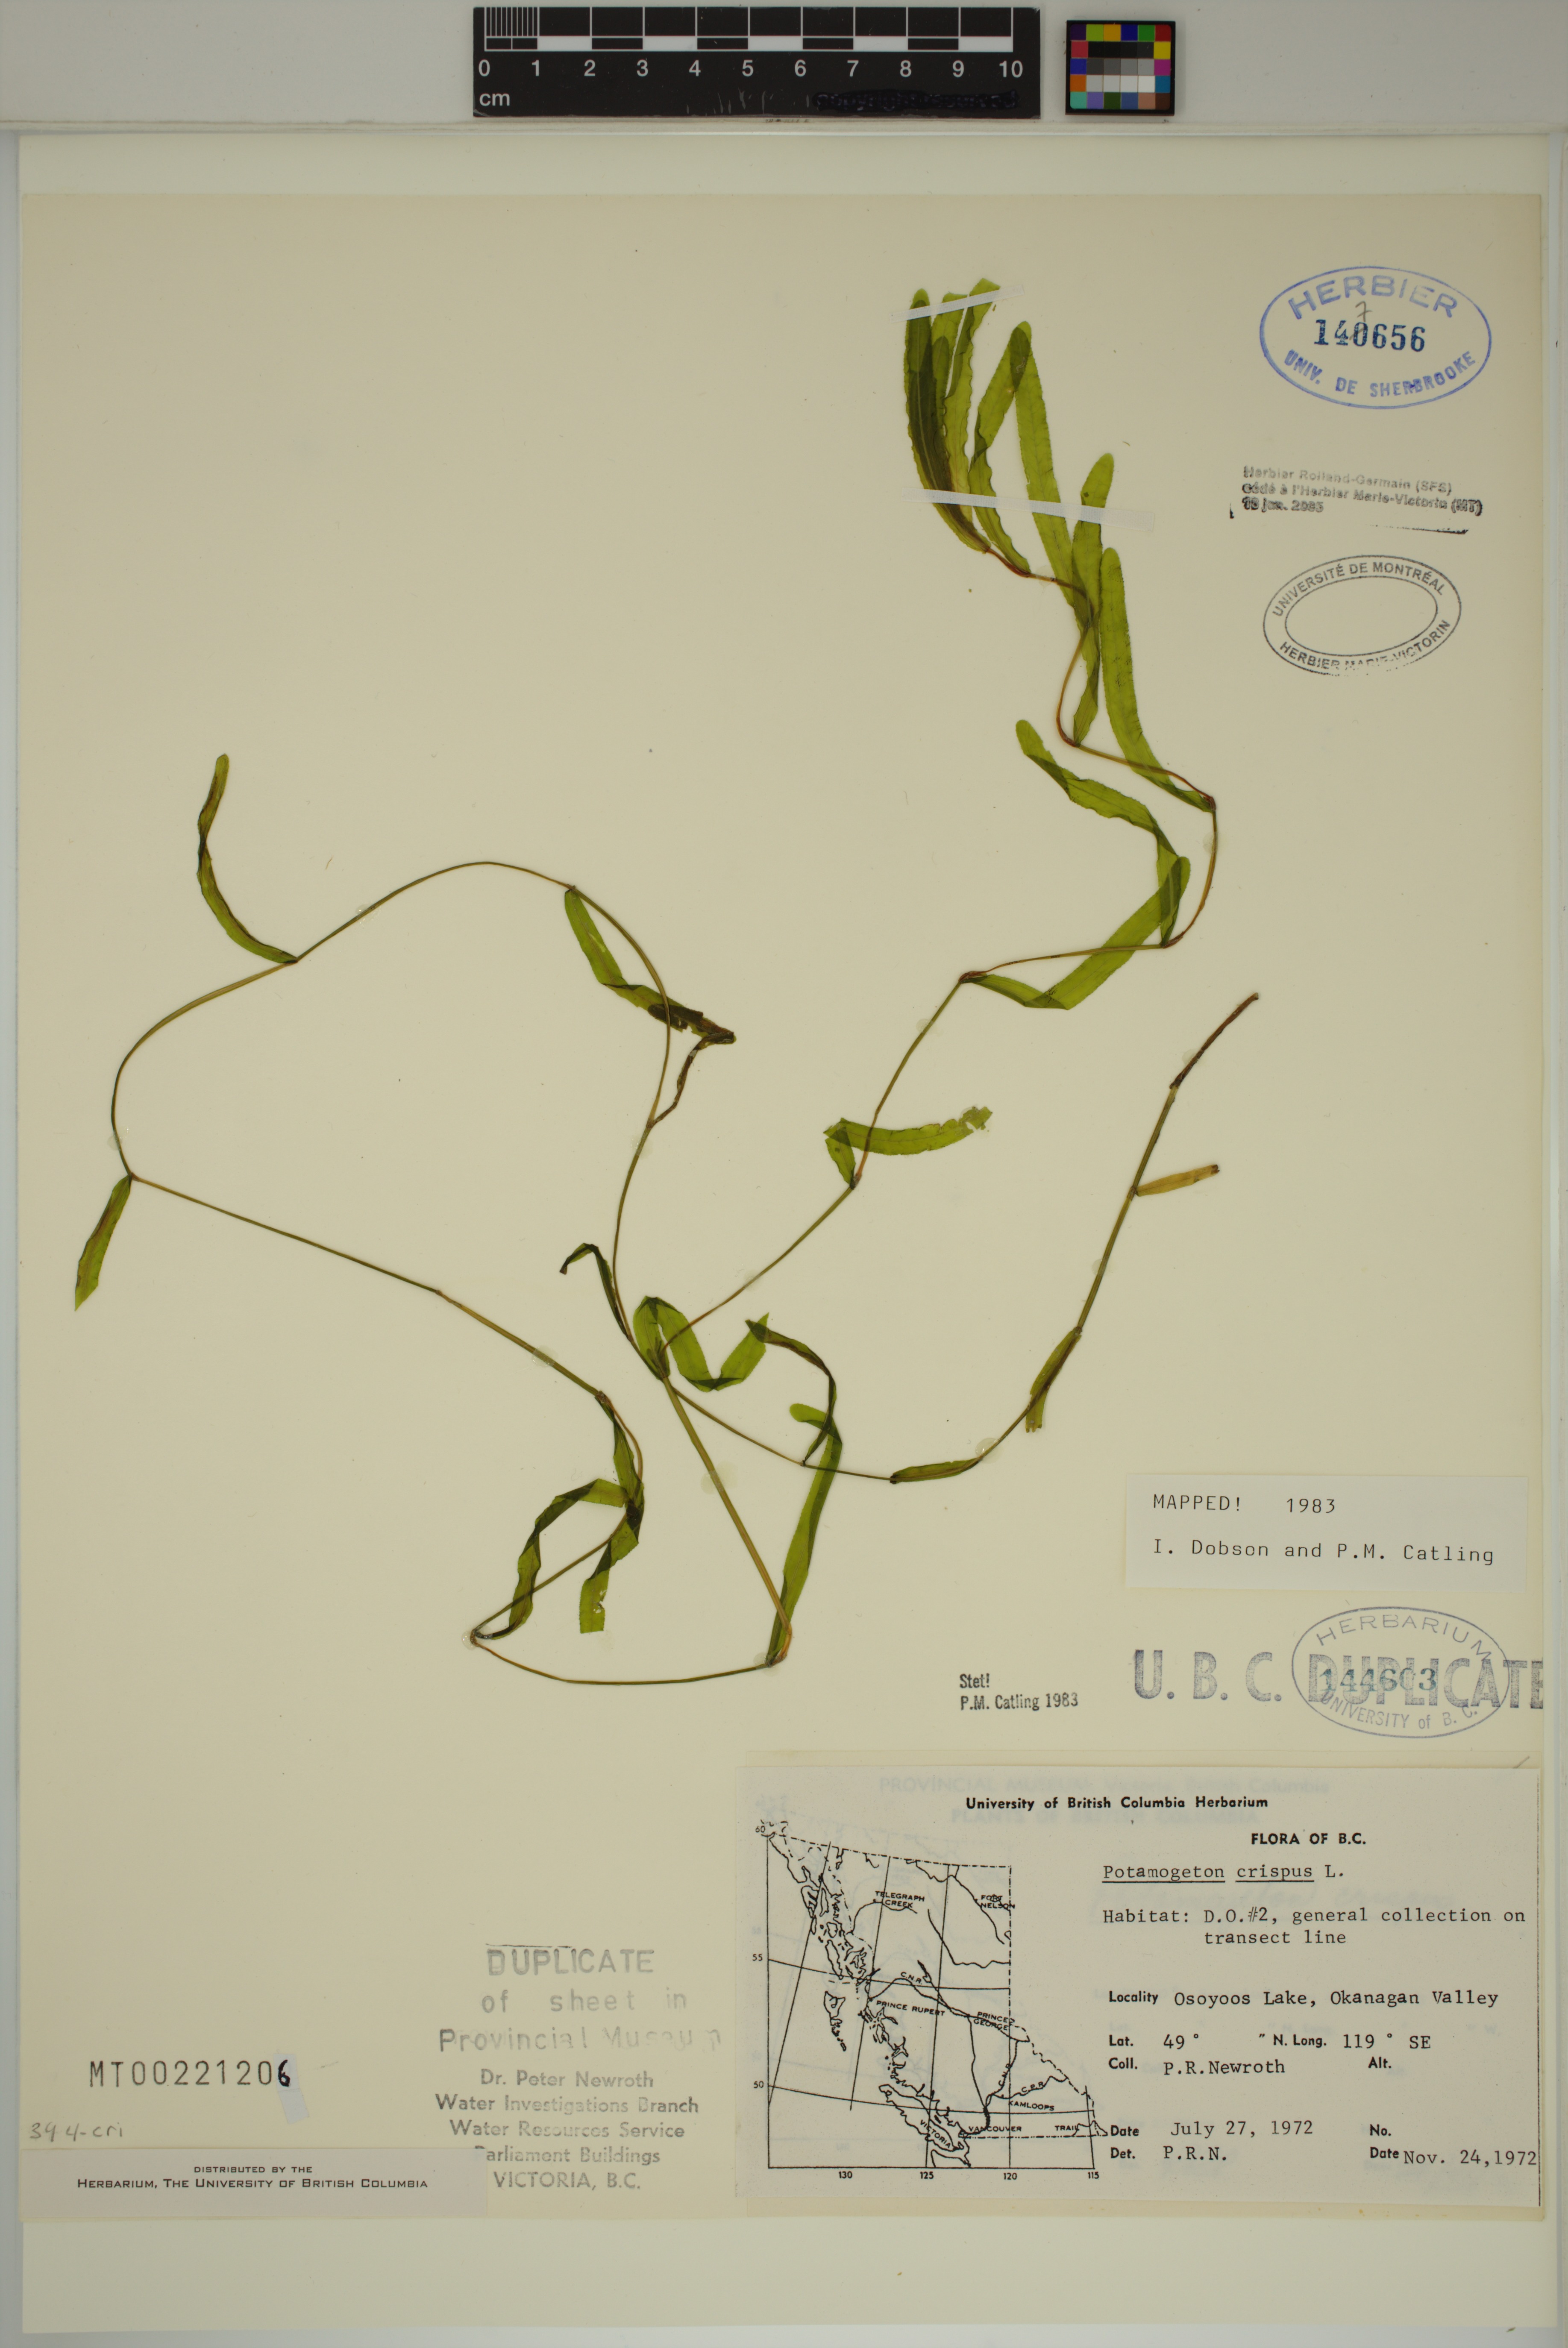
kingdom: Plantae
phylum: Tracheophyta
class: Liliopsida
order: Alismatales
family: Potamogetonaceae
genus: Potamogeton
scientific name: Potamogeton crispus
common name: Curled pondweed
